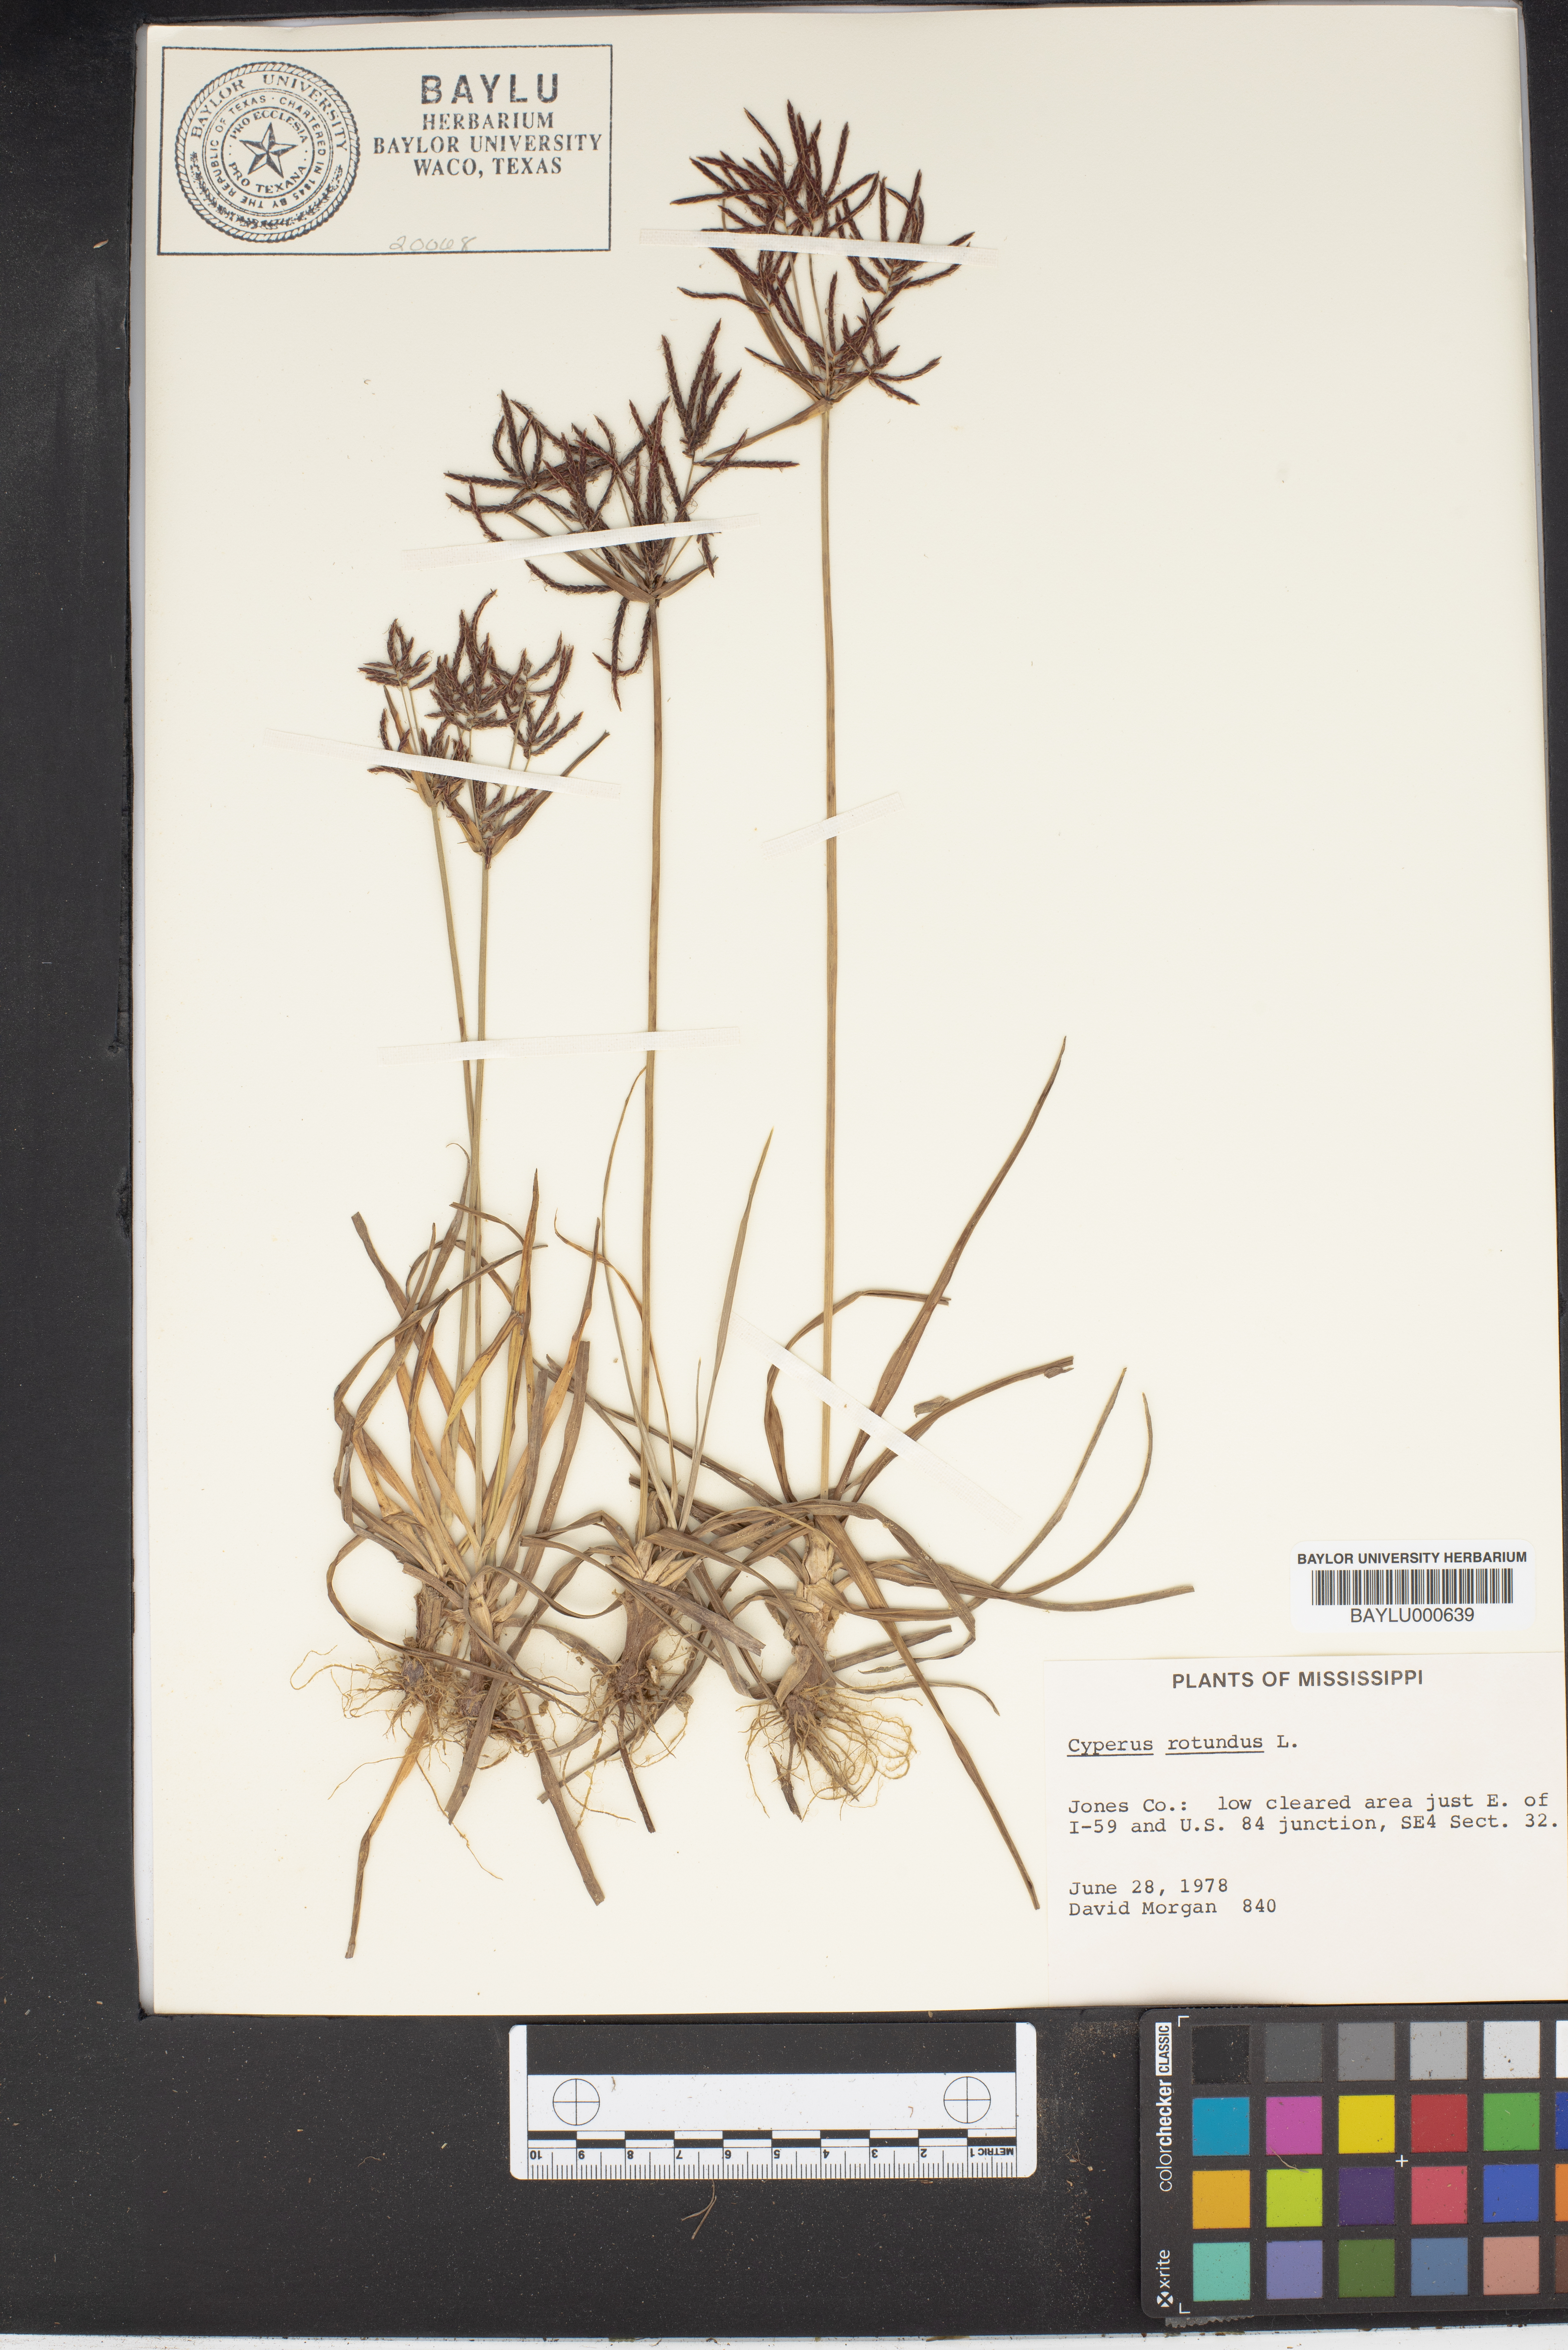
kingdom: Plantae
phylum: Tracheophyta
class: Liliopsida
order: Poales
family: Cyperaceae
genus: Cyperus
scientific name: Cyperus rotundus
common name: Nutgrass
